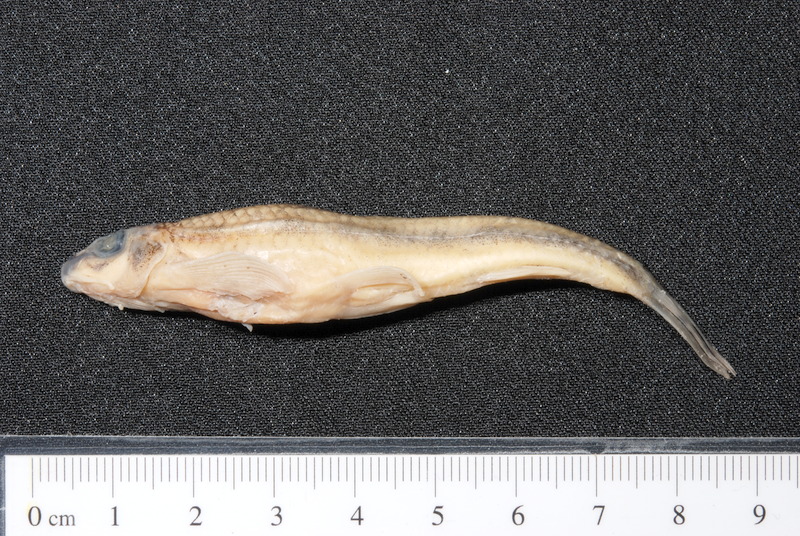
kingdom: Animalia
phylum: Chordata
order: Cypriniformes
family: Cyprinidae
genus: Romanogobio
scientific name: Romanogobio belingi
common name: Northern whitefin gudgeon
